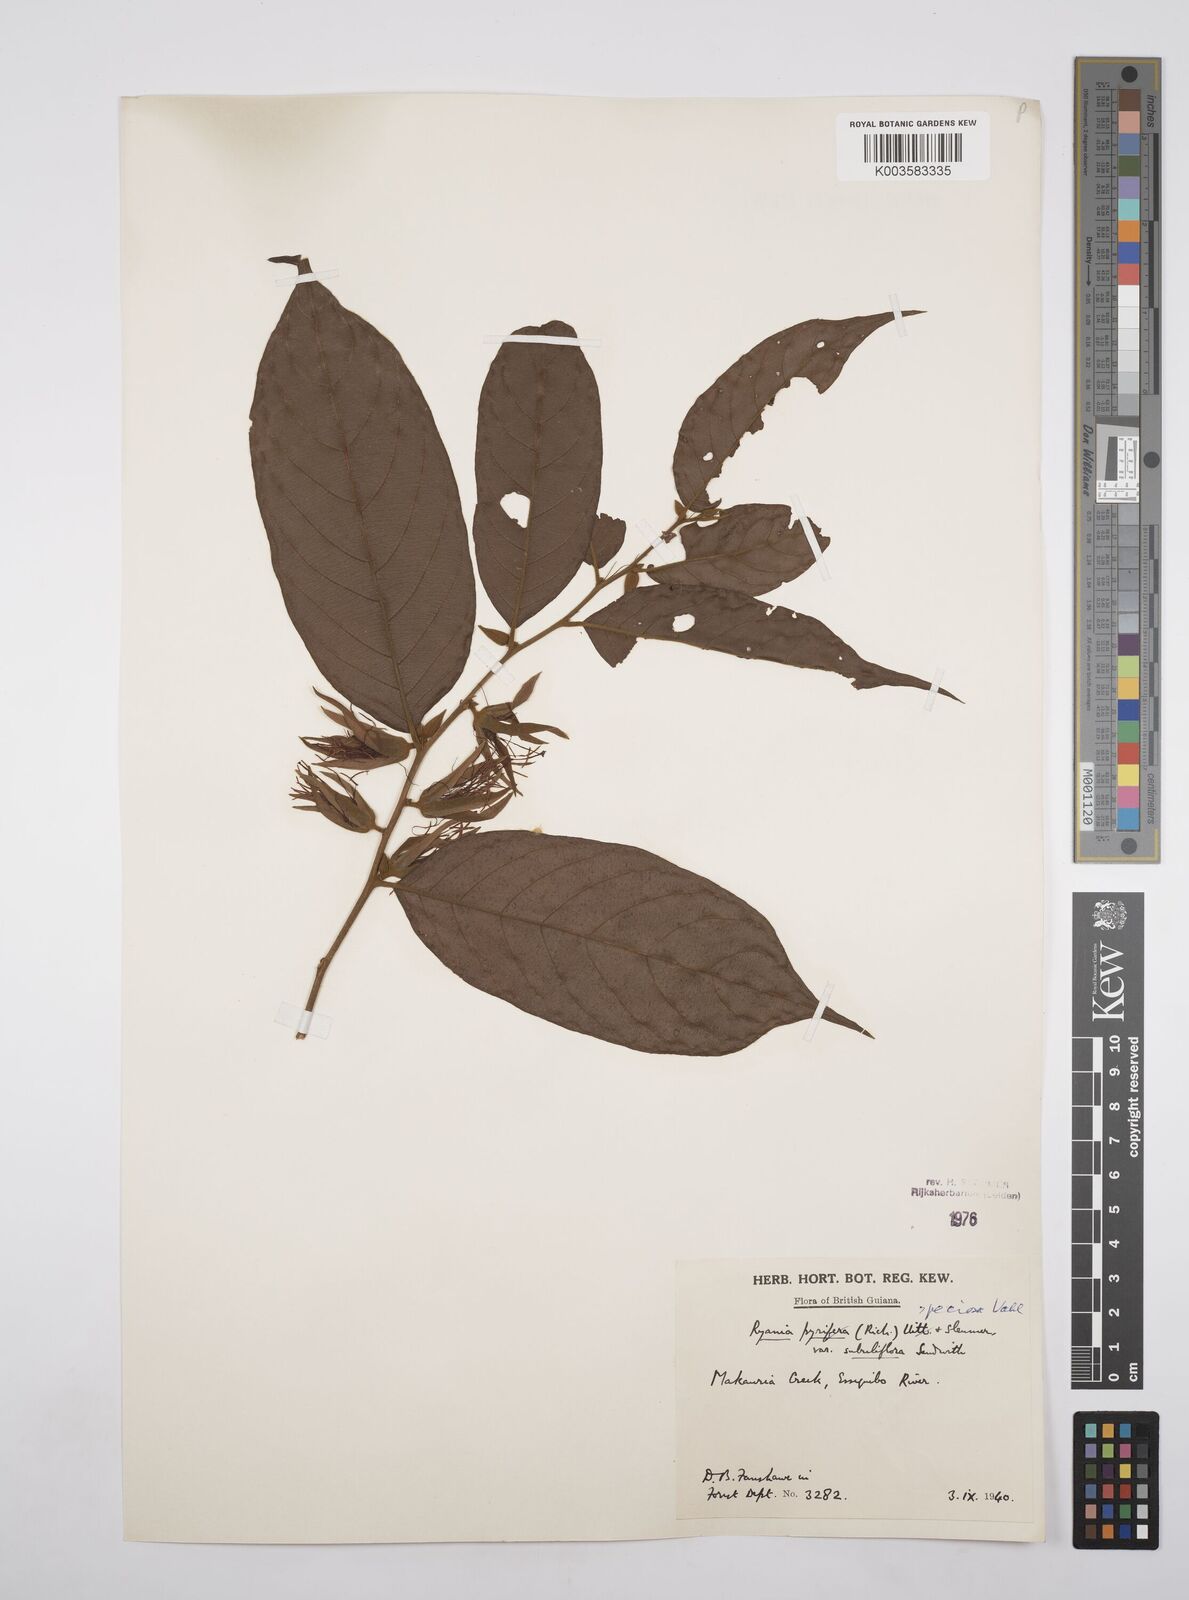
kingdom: Plantae
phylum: Tracheophyta
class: Magnoliopsida
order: Malpighiales
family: Salicaceae
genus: Ryania
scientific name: Ryania speciosa
